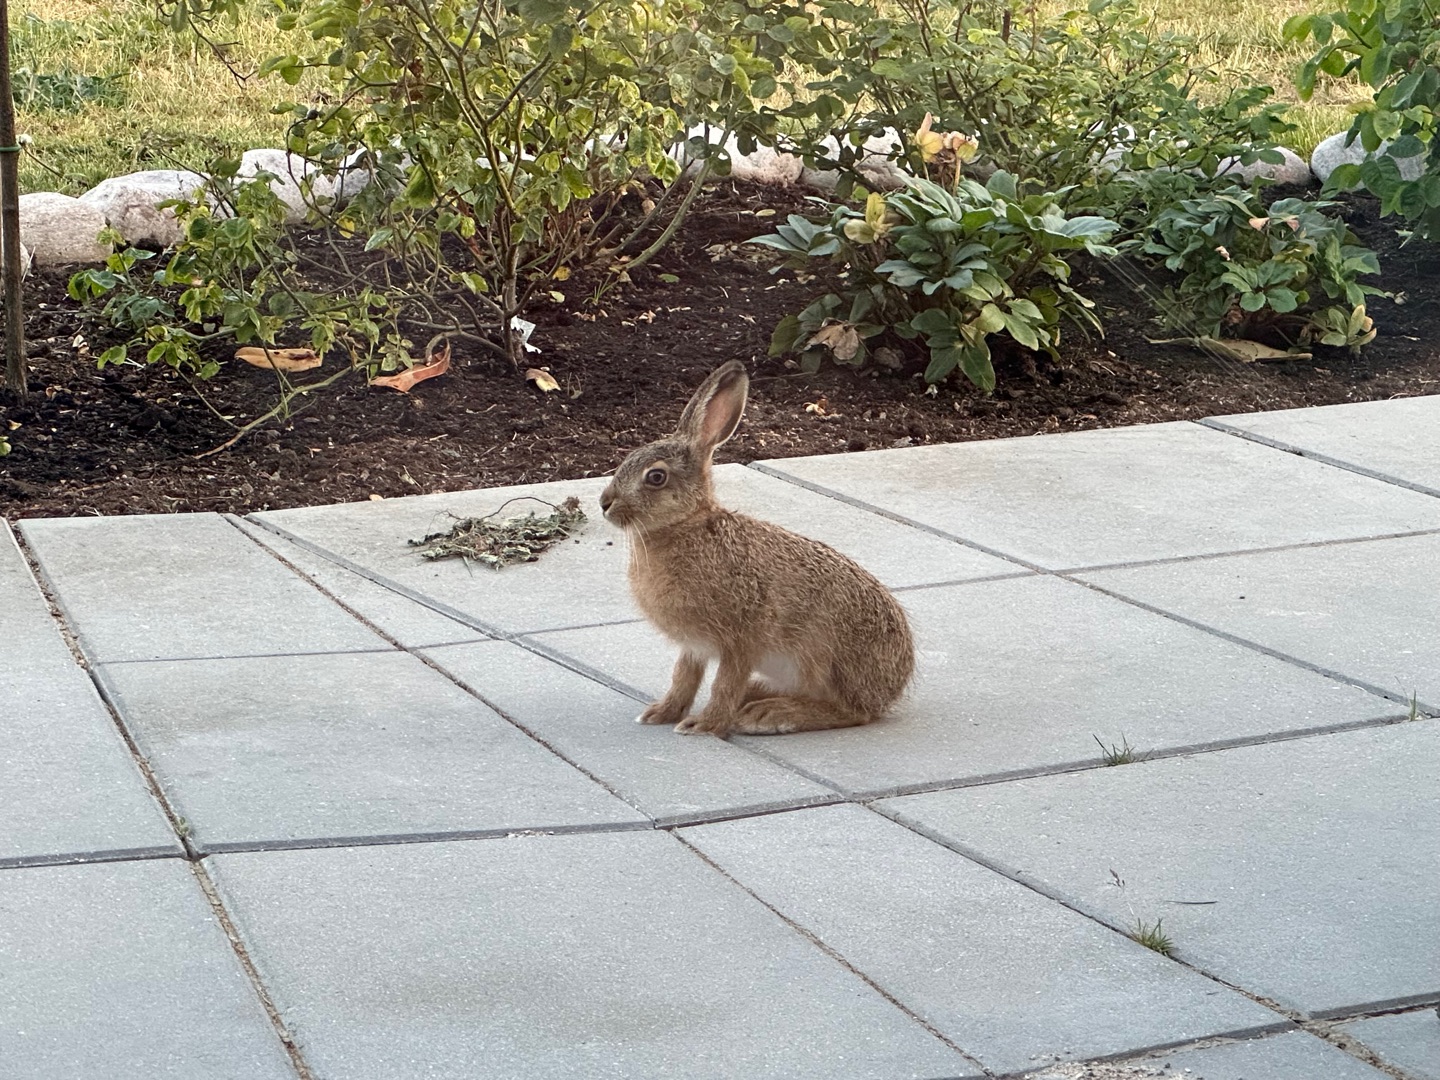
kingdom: Animalia
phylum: Chordata
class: Mammalia
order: Lagomorpha
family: Leporidae
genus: Lepus
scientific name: Lepus europaeus
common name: Hare
